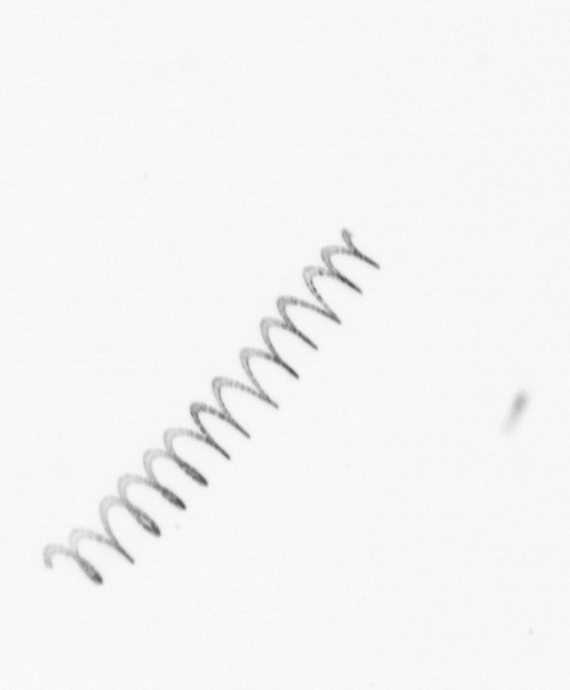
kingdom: Chromista
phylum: Ochrophyta
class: Bacillariophyceae
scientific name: Bacillariophyceae
